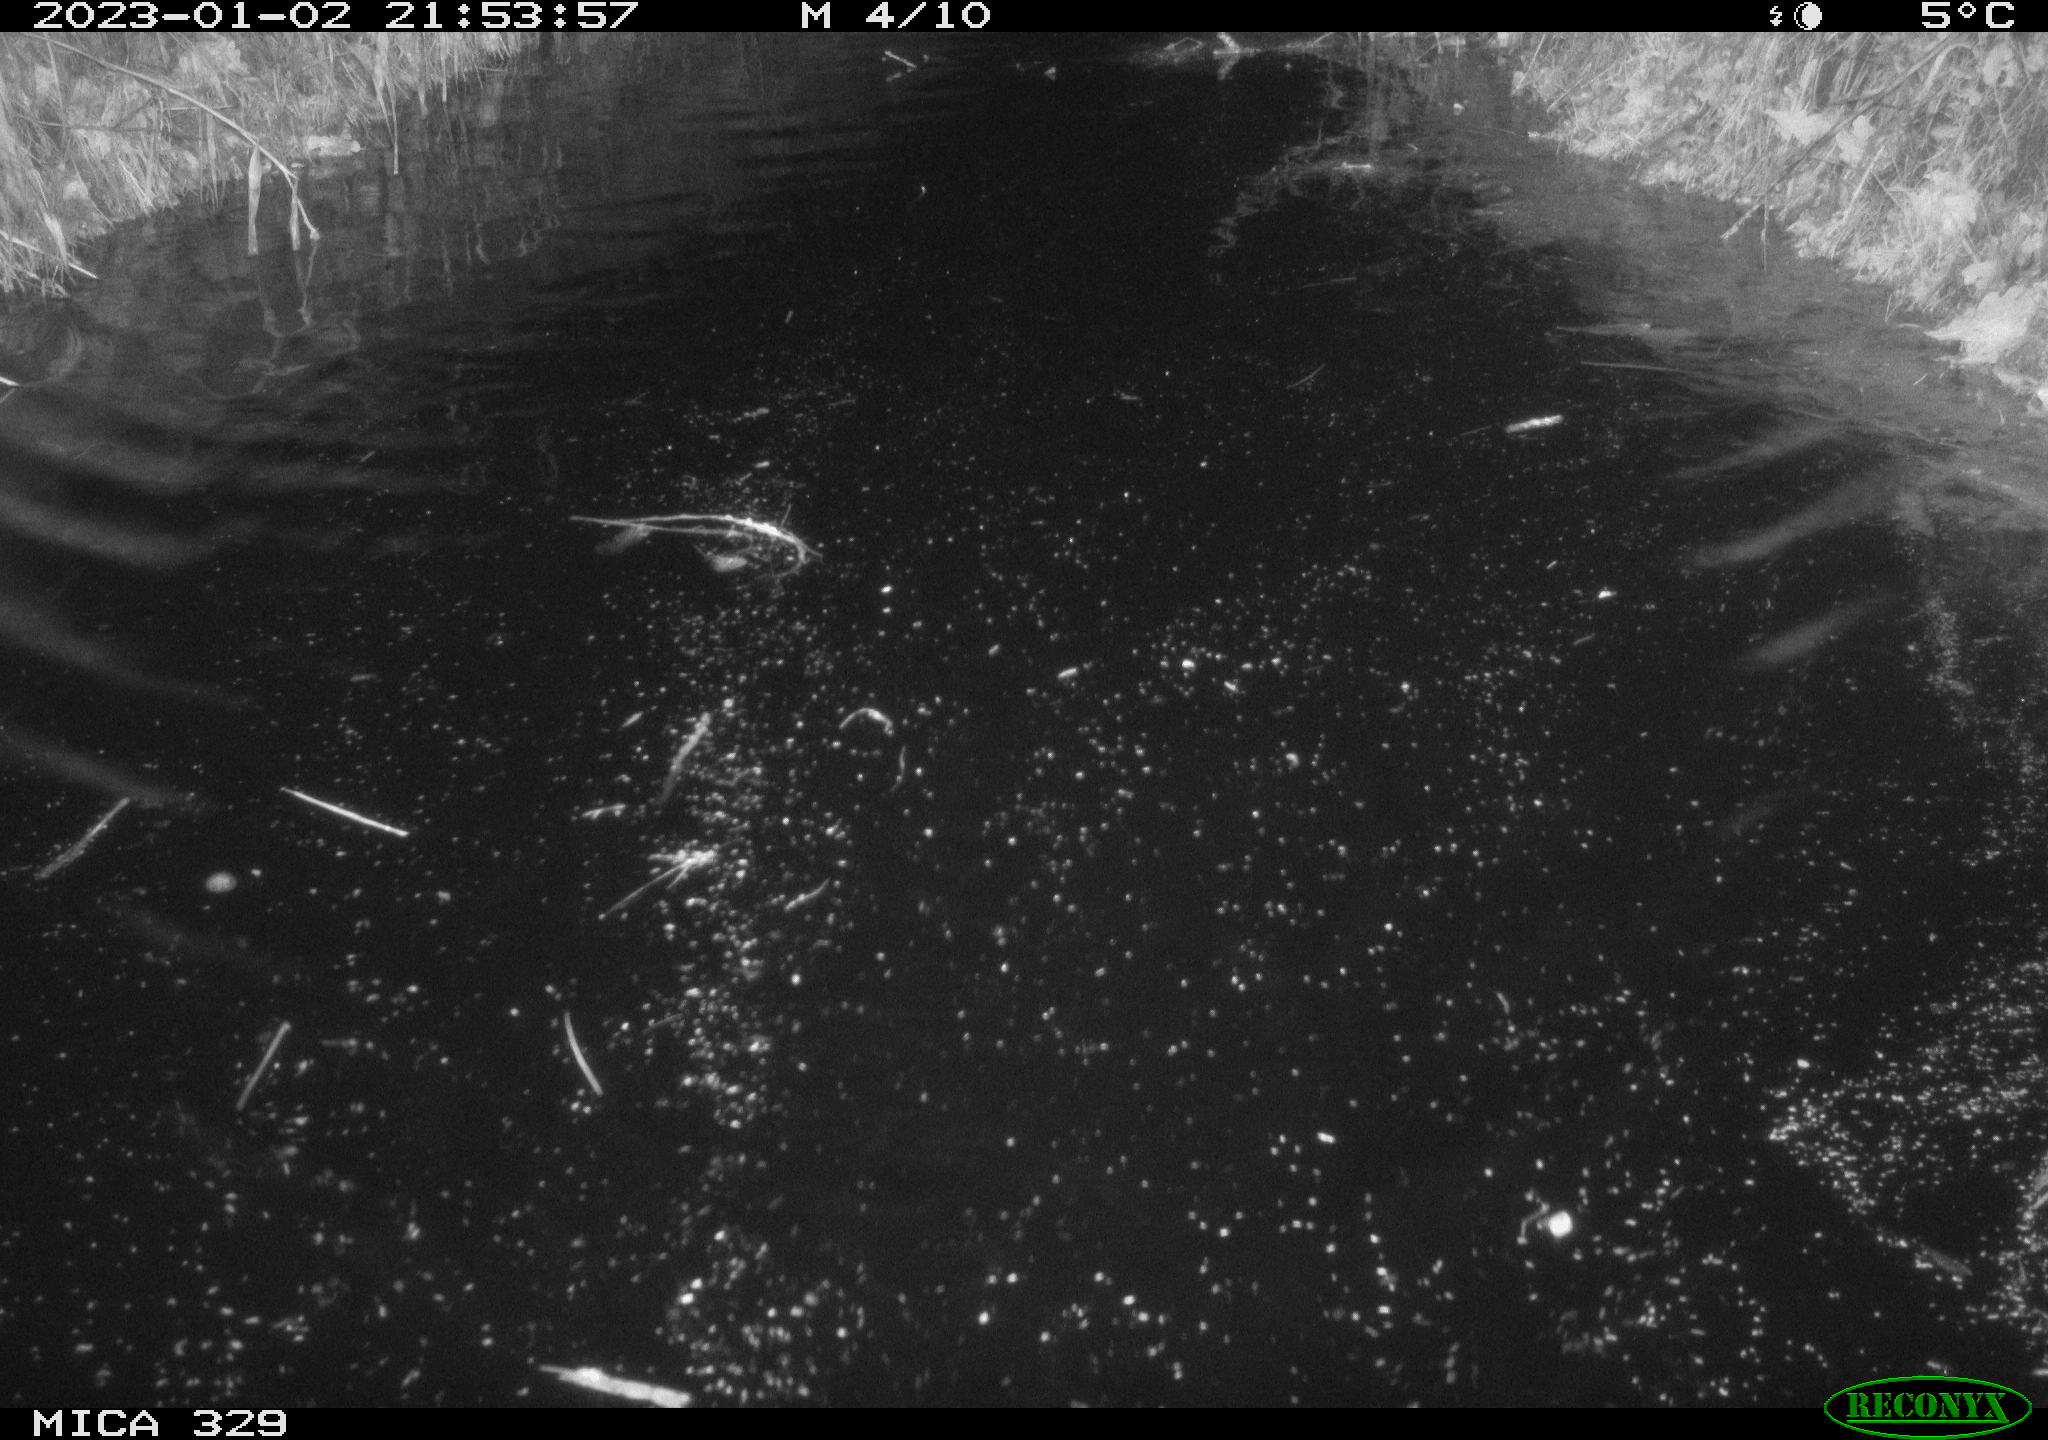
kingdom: Animalia
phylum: Chordata
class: Mammalia
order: Rodentia
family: Cricetidae
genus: Ondatra
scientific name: Ondatra zibethicus
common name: Muskrat
